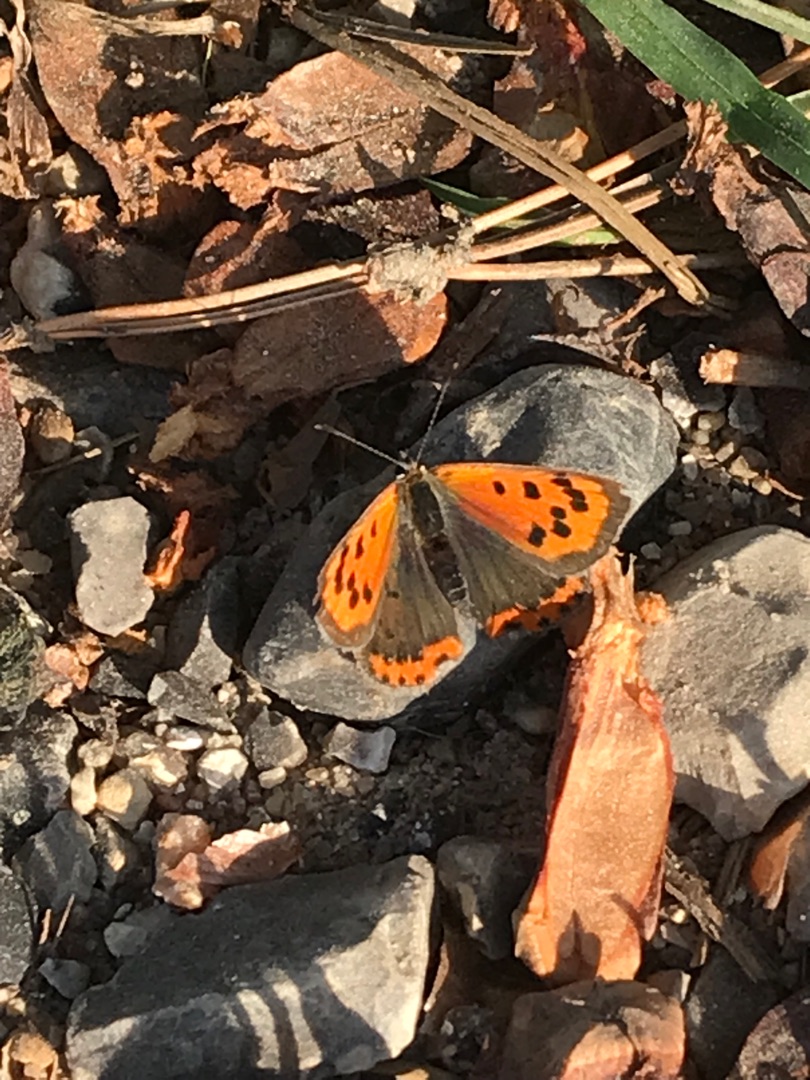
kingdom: Animalia
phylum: Arthropoda
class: Insecta
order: Lepidoptera
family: Lycaenidae
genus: Lycaena
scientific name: Lycaena phlaeas
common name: Lille ildfugl
